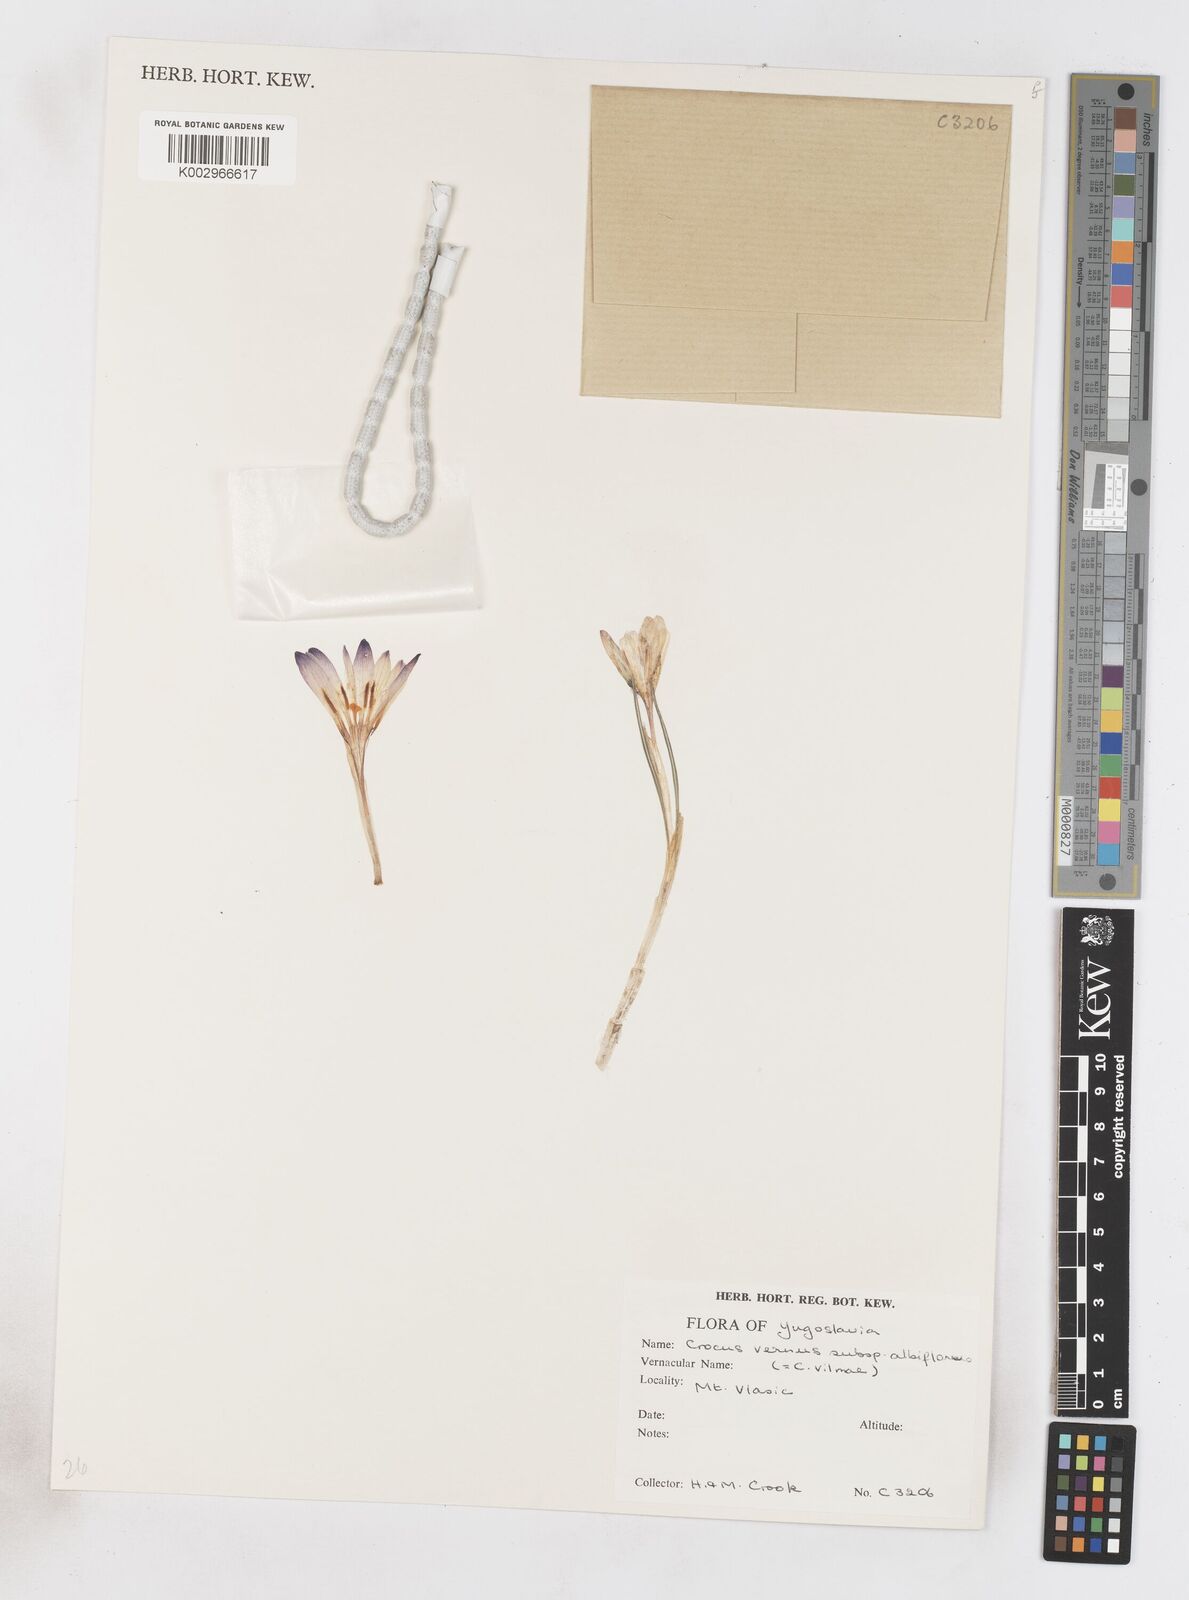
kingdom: Plantae
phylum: Tracheophyta
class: Liliopsida
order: Asparagales
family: Iridaceae
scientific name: Iridaceae
